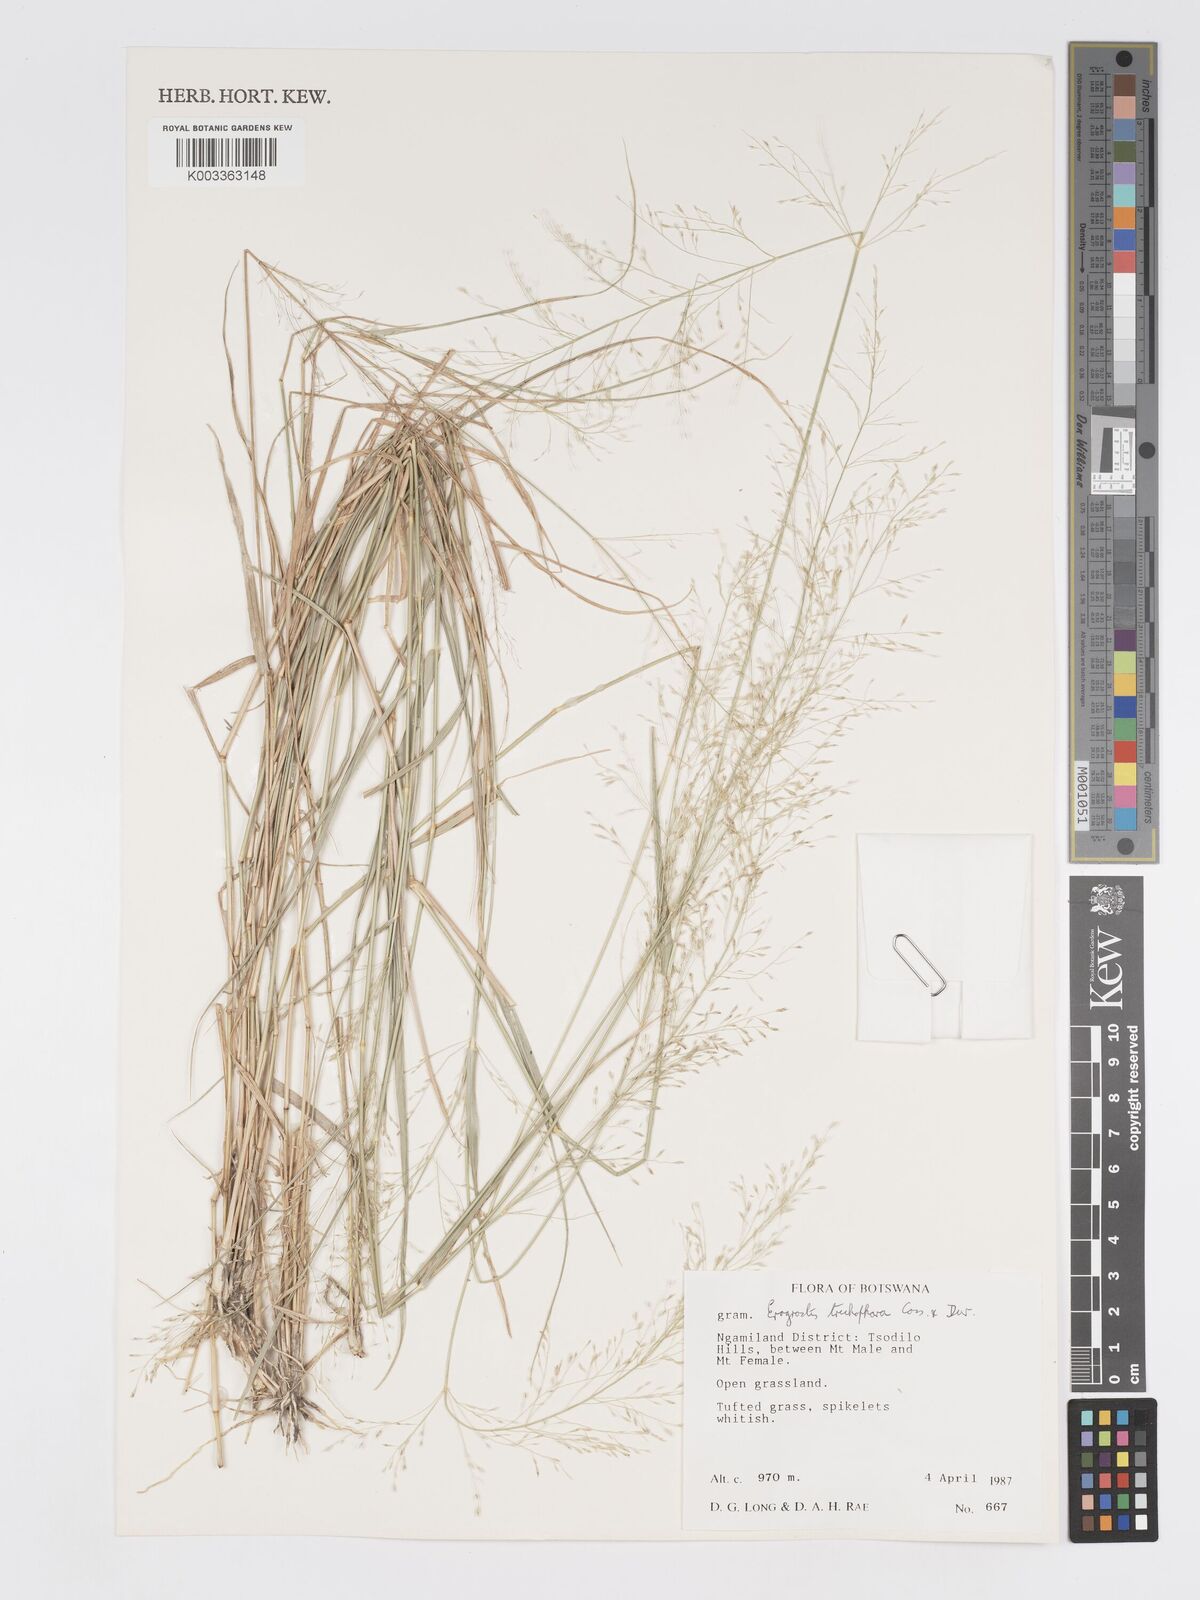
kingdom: Plantae
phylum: Tracheophyta
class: Liliopsida
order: Poales
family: Poaceae
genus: Eragrostis
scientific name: Eragrostis cylindriflora
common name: Cylinderflower lovegrass
